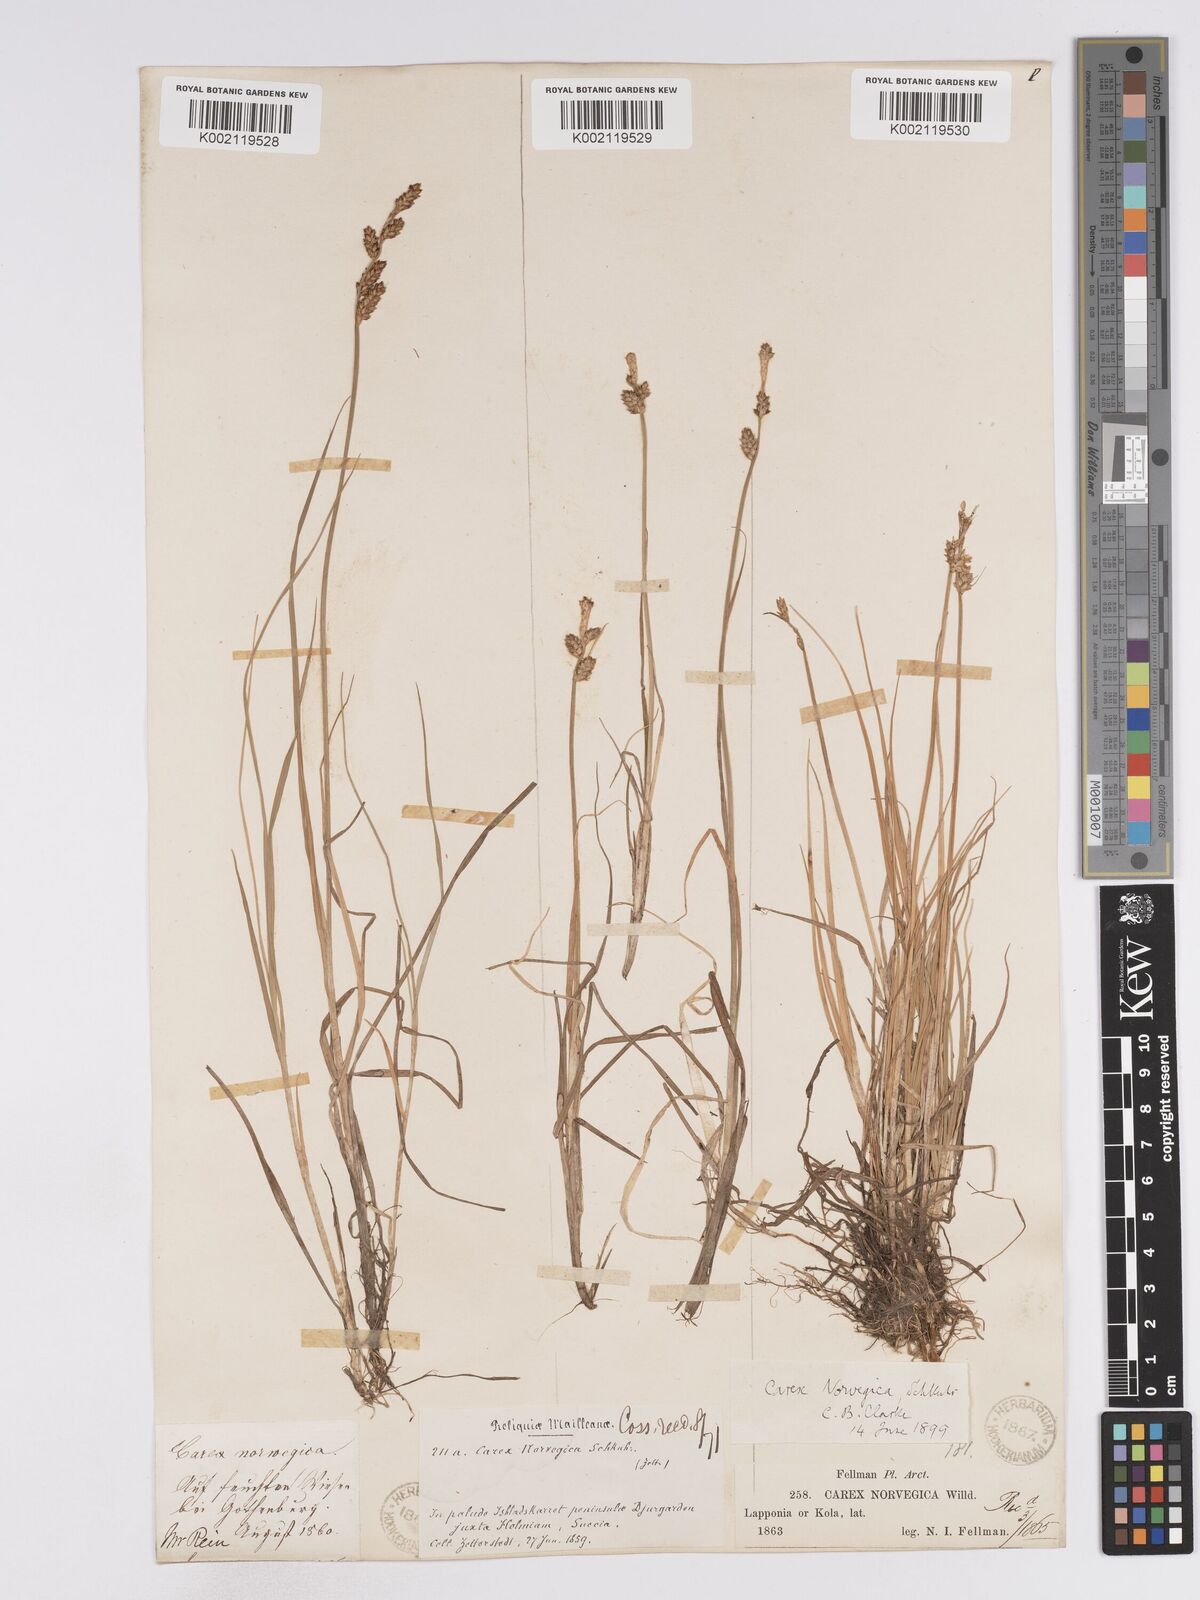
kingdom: Plantae
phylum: Tracheophyta
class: Liliopsida
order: Poales
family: Cyperaceae
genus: Carex
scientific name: Carex mackenziei
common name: Mackenzie's sedge
